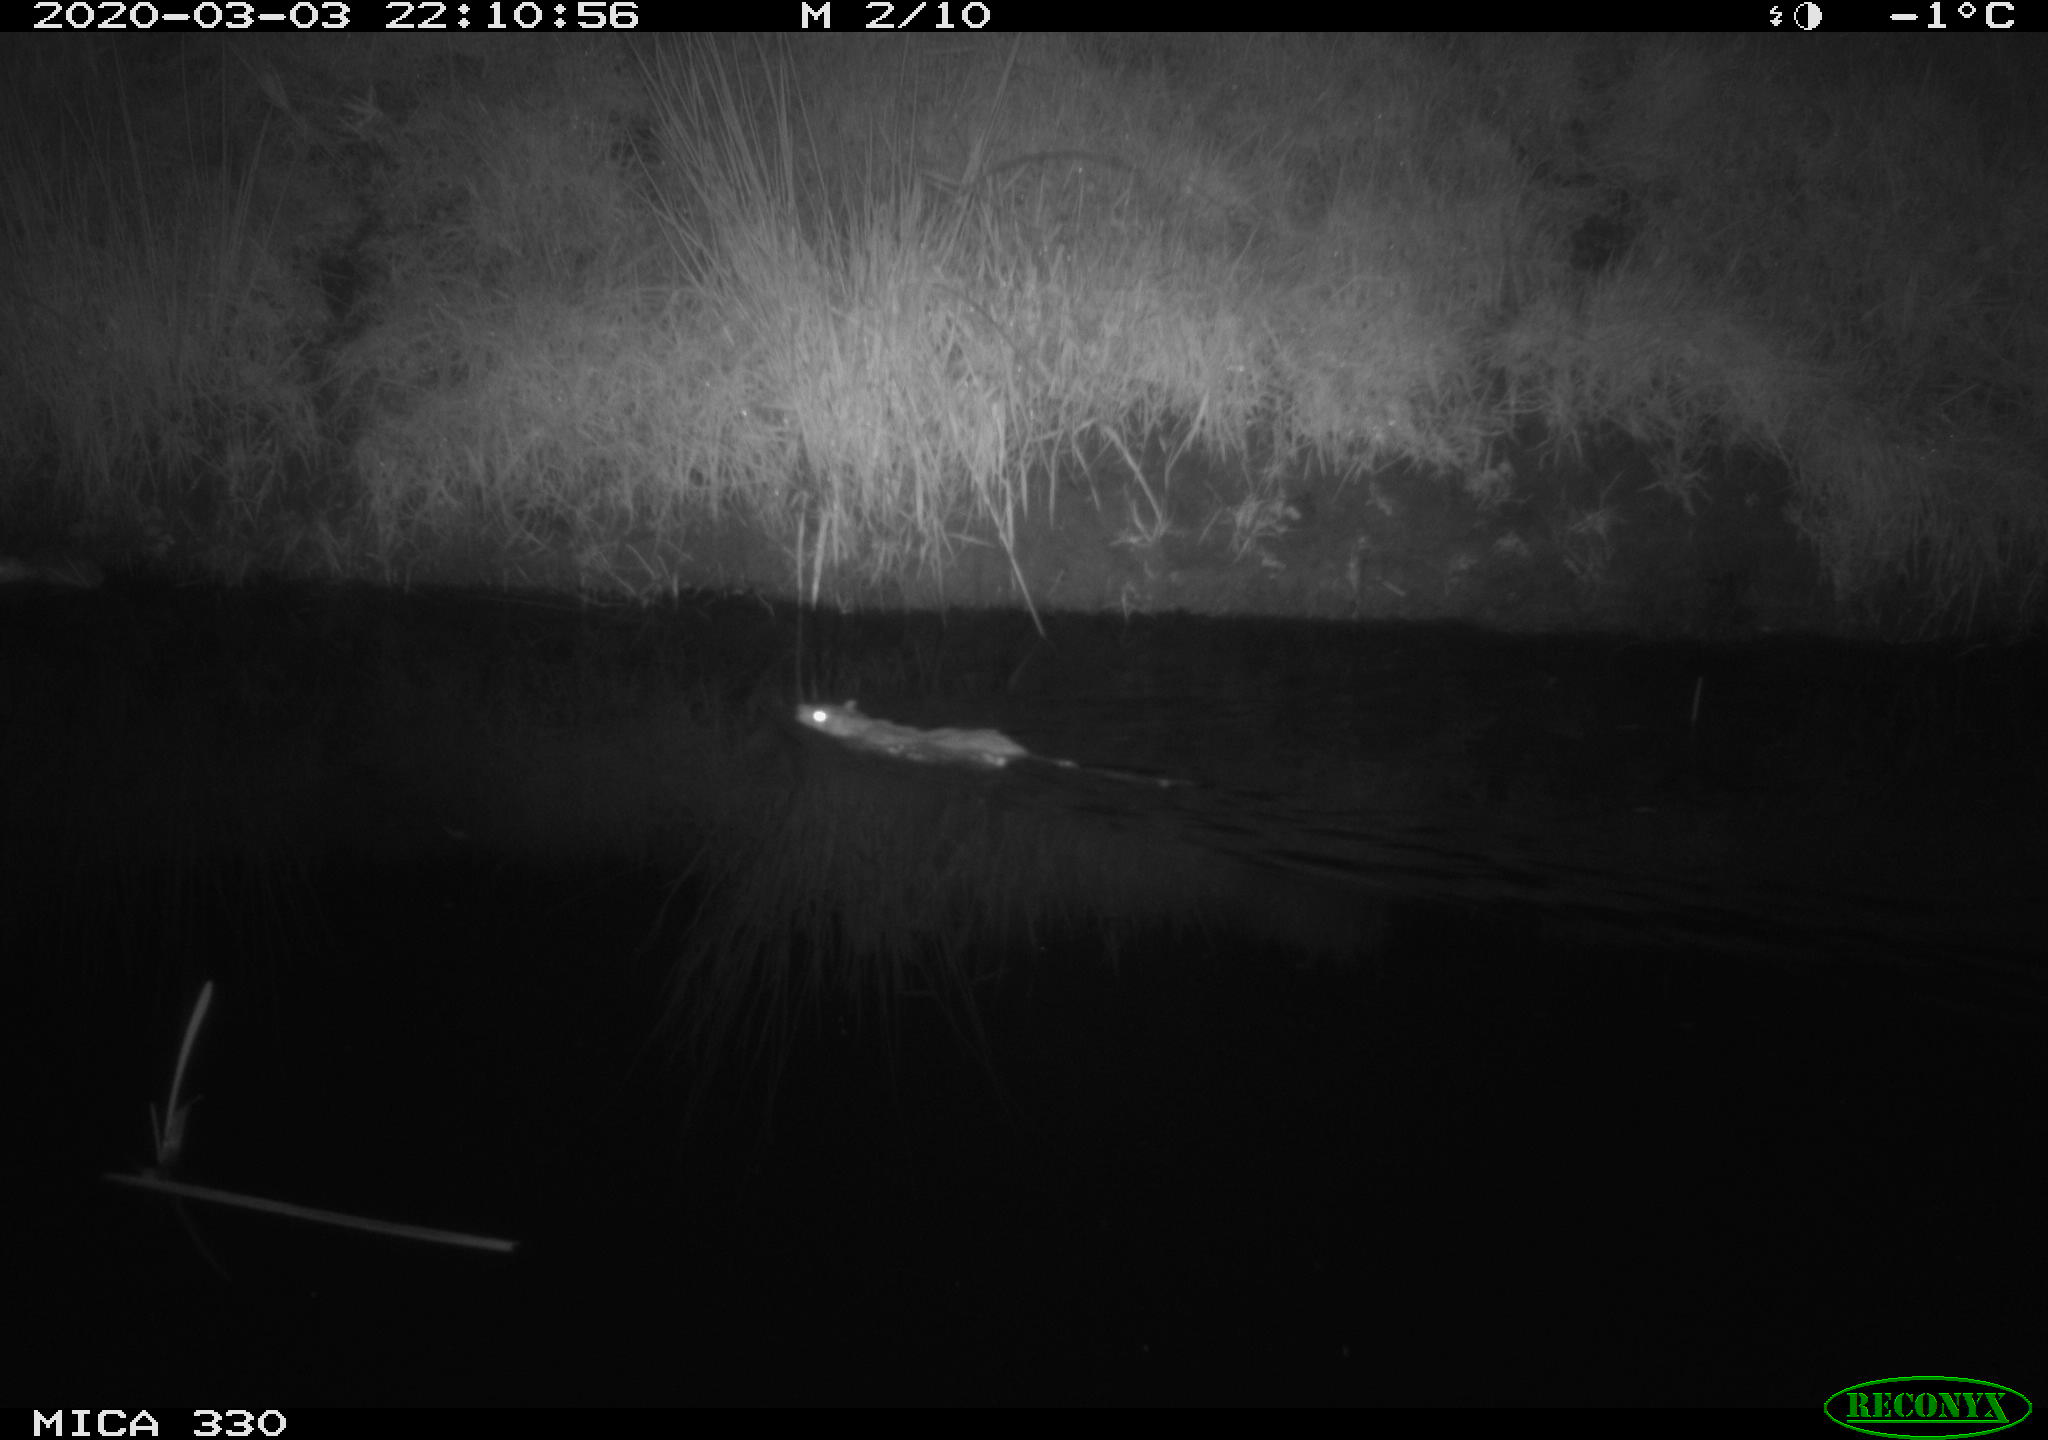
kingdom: Animalia
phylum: Chordata
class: Mammalia
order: Rodentia
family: Muridae
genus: Rattus
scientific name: Rattus norvegicus
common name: Brown rat
